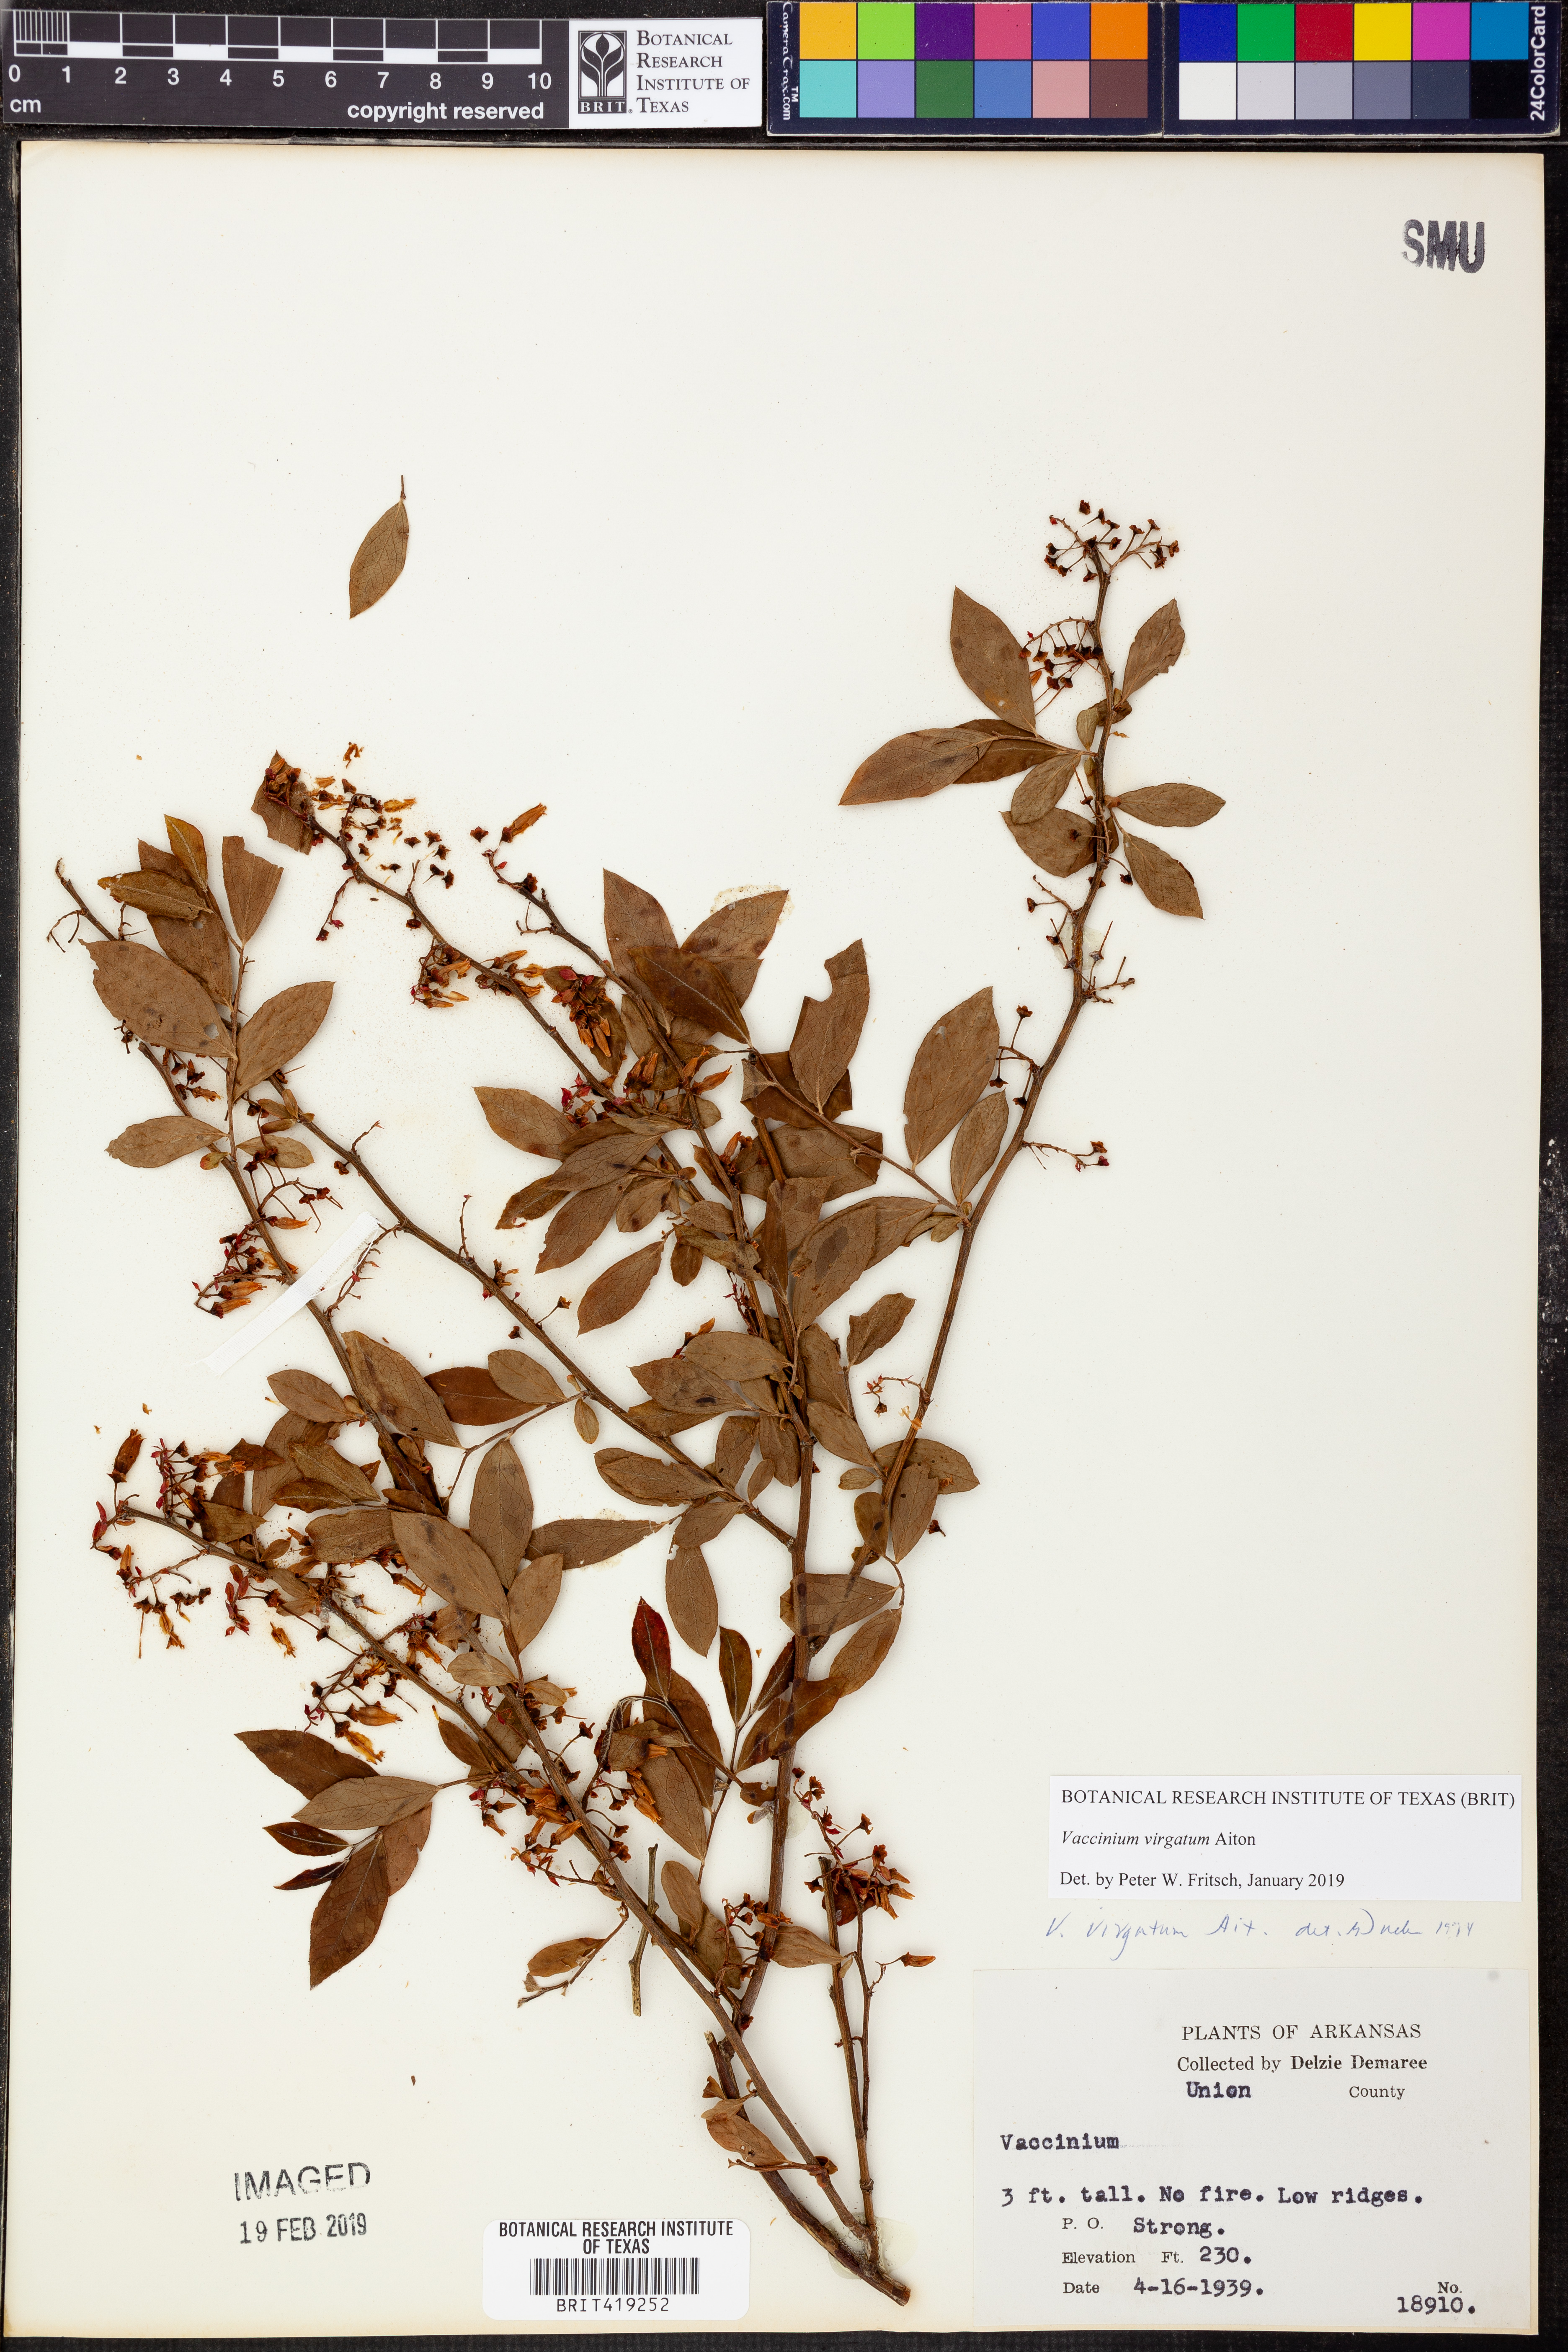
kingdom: Plantae
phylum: Tracheophyta
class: Magnoliopsida
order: Ericales
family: Ericaceae
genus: Vaccinium
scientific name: Vaccinium corymbosum
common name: Blueberry
